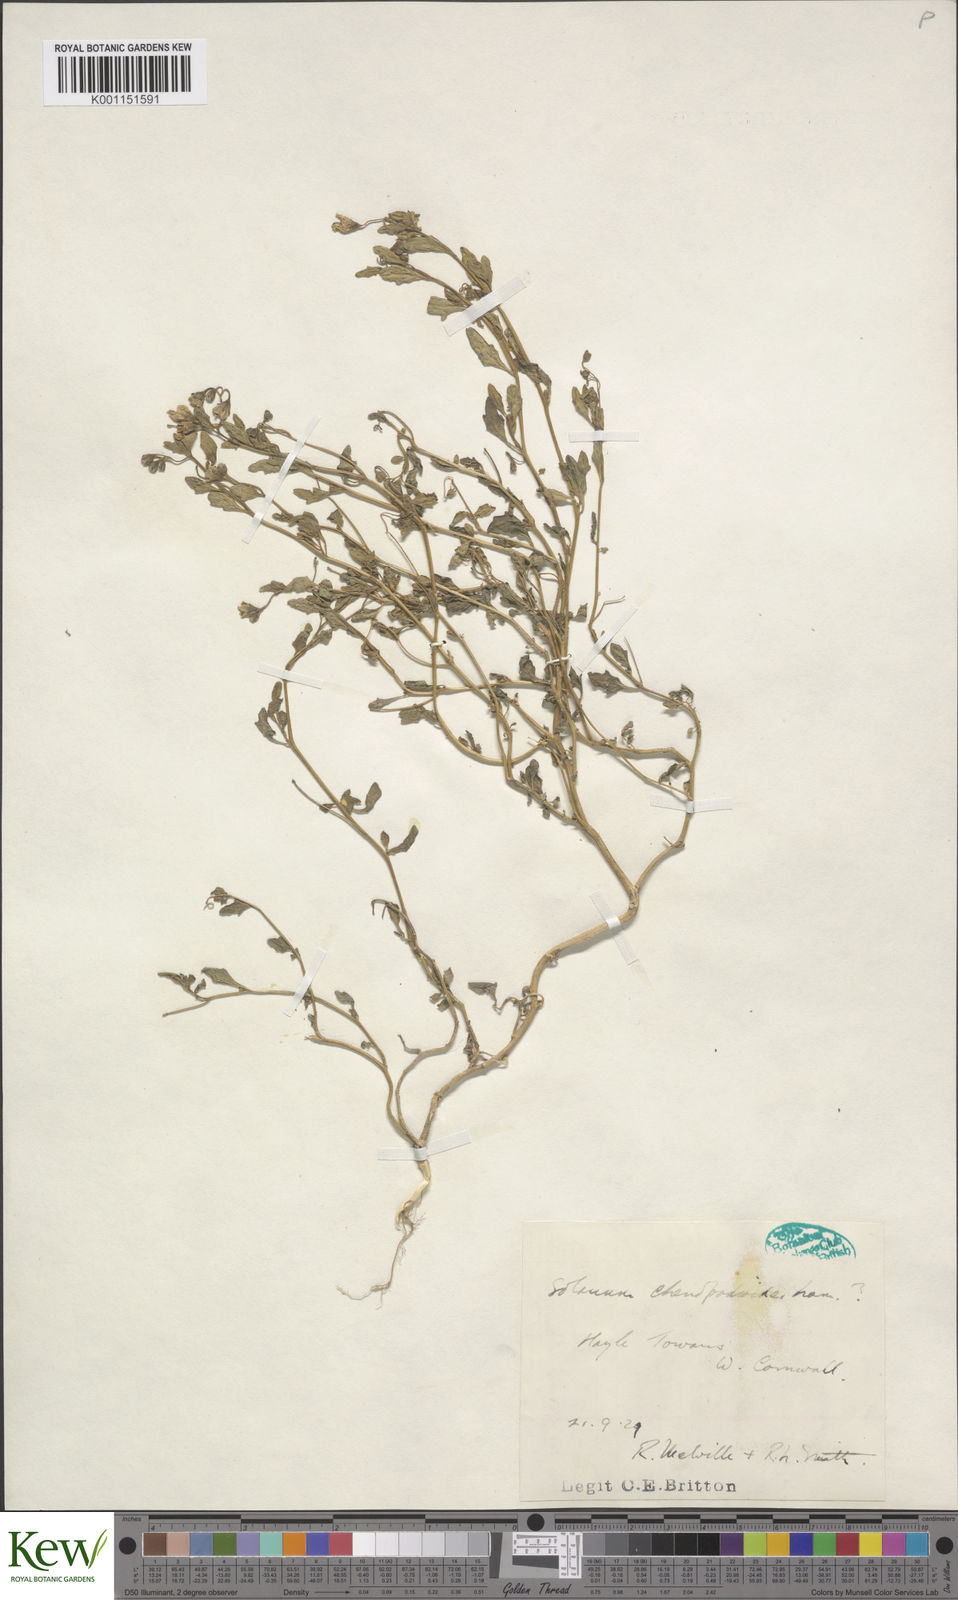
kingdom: Plantae
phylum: Tracheophyta
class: Magnoliopsida
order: Solanales
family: Solanaceae
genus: Solanum
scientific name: Solanum pygmaeum
